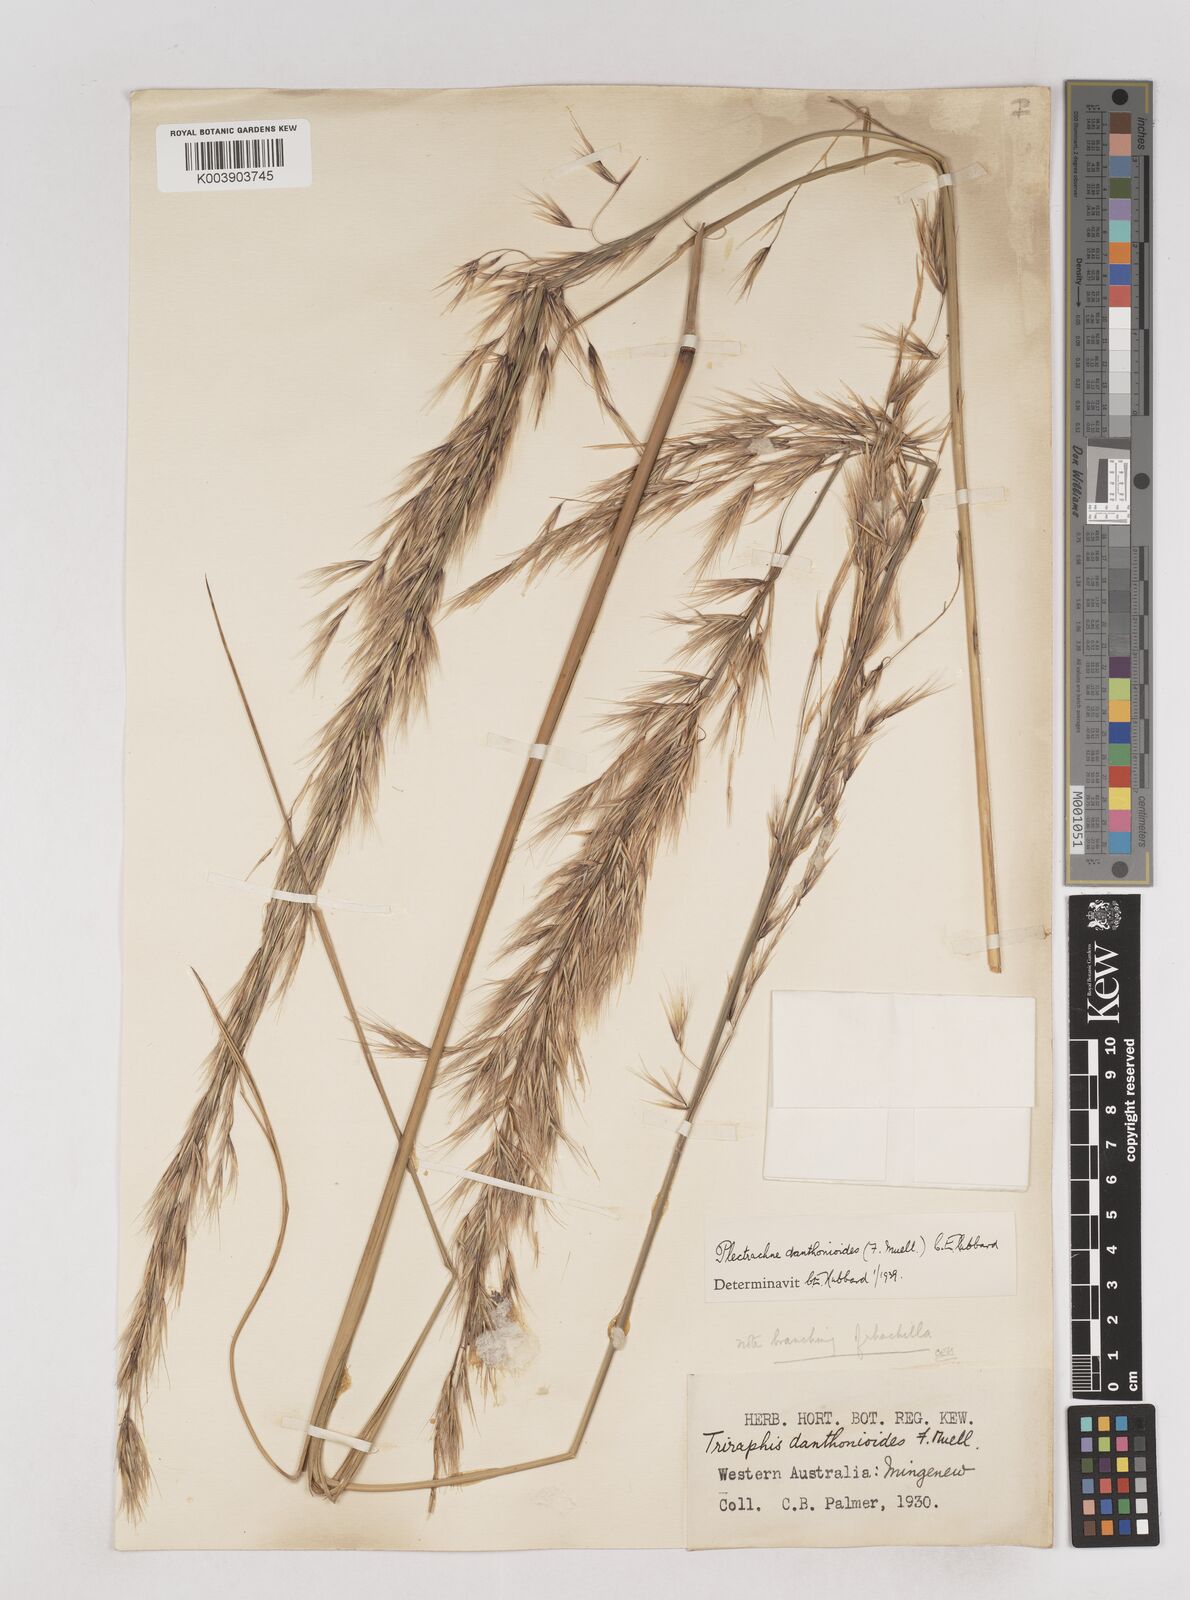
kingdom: Plantae
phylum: Tracheophyta
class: Liliopsida
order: Poales
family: Poaceae
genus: Triodia
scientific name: Triodia danthonioides
